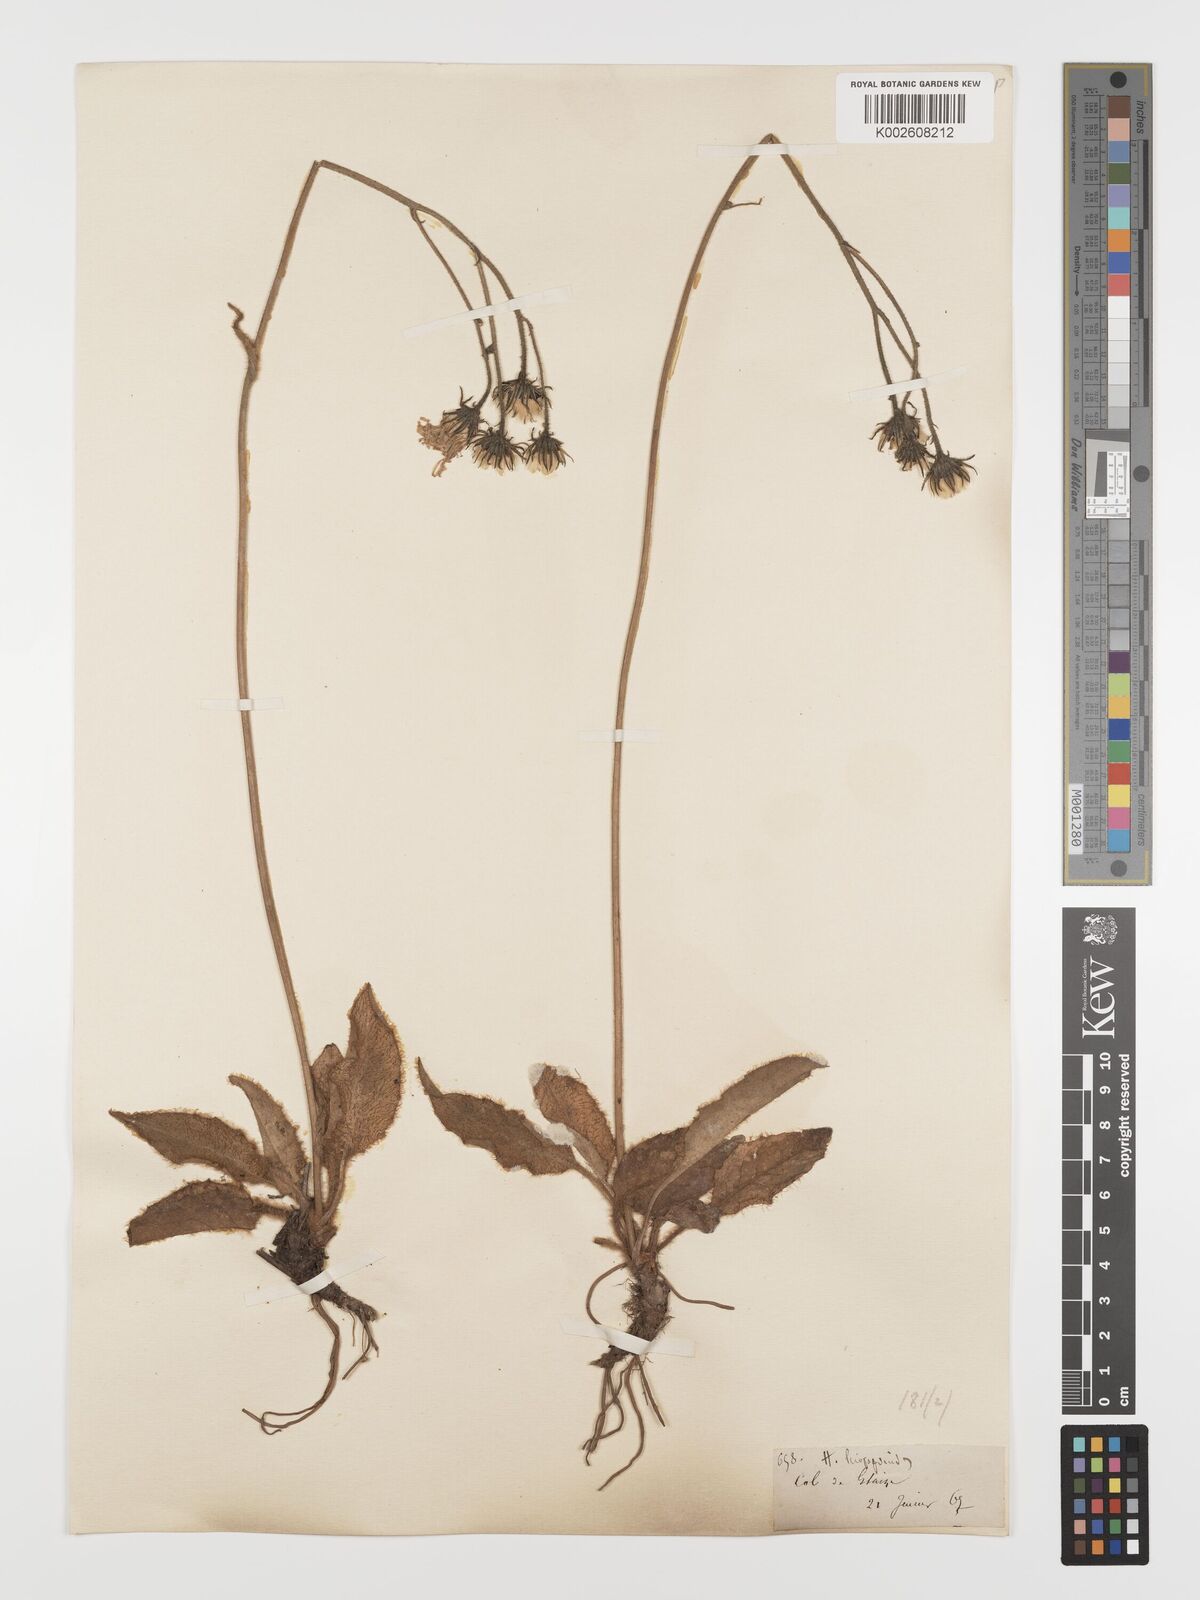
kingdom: Plantae
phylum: Tracheophyta
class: Magnoliopsida
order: Asterales
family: Asteraceae
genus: Hieracium
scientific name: Hieracium
